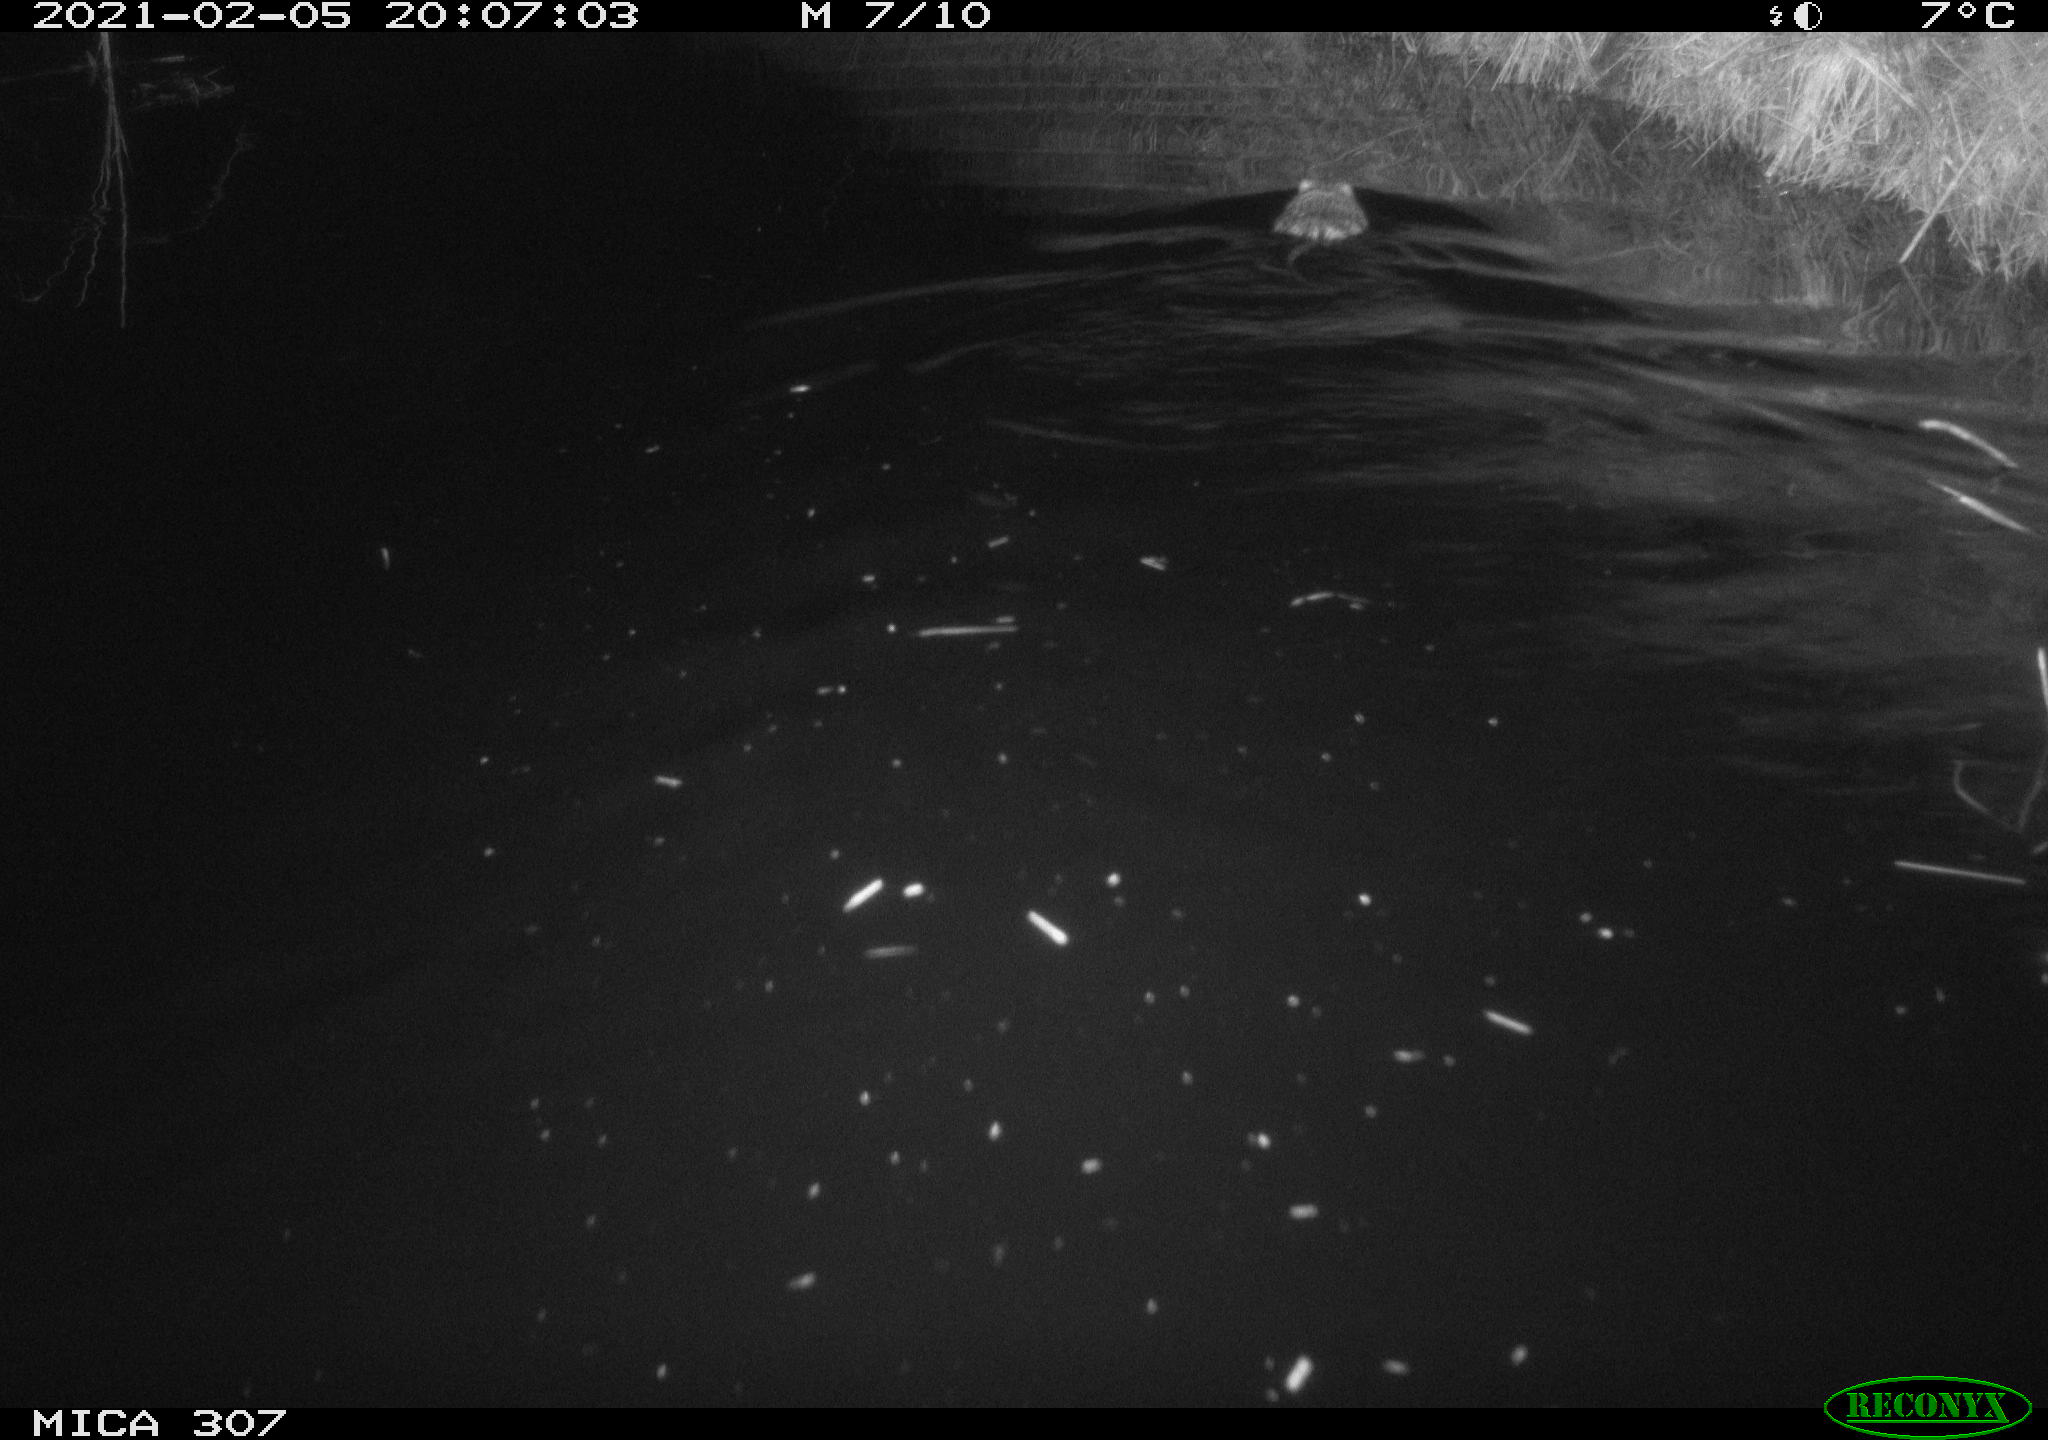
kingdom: Animalia
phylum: Chordata
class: Mammalia
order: Rodentia
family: Cricetidae
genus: Ondatra
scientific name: Ondatra zibethicus
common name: Muskrat
